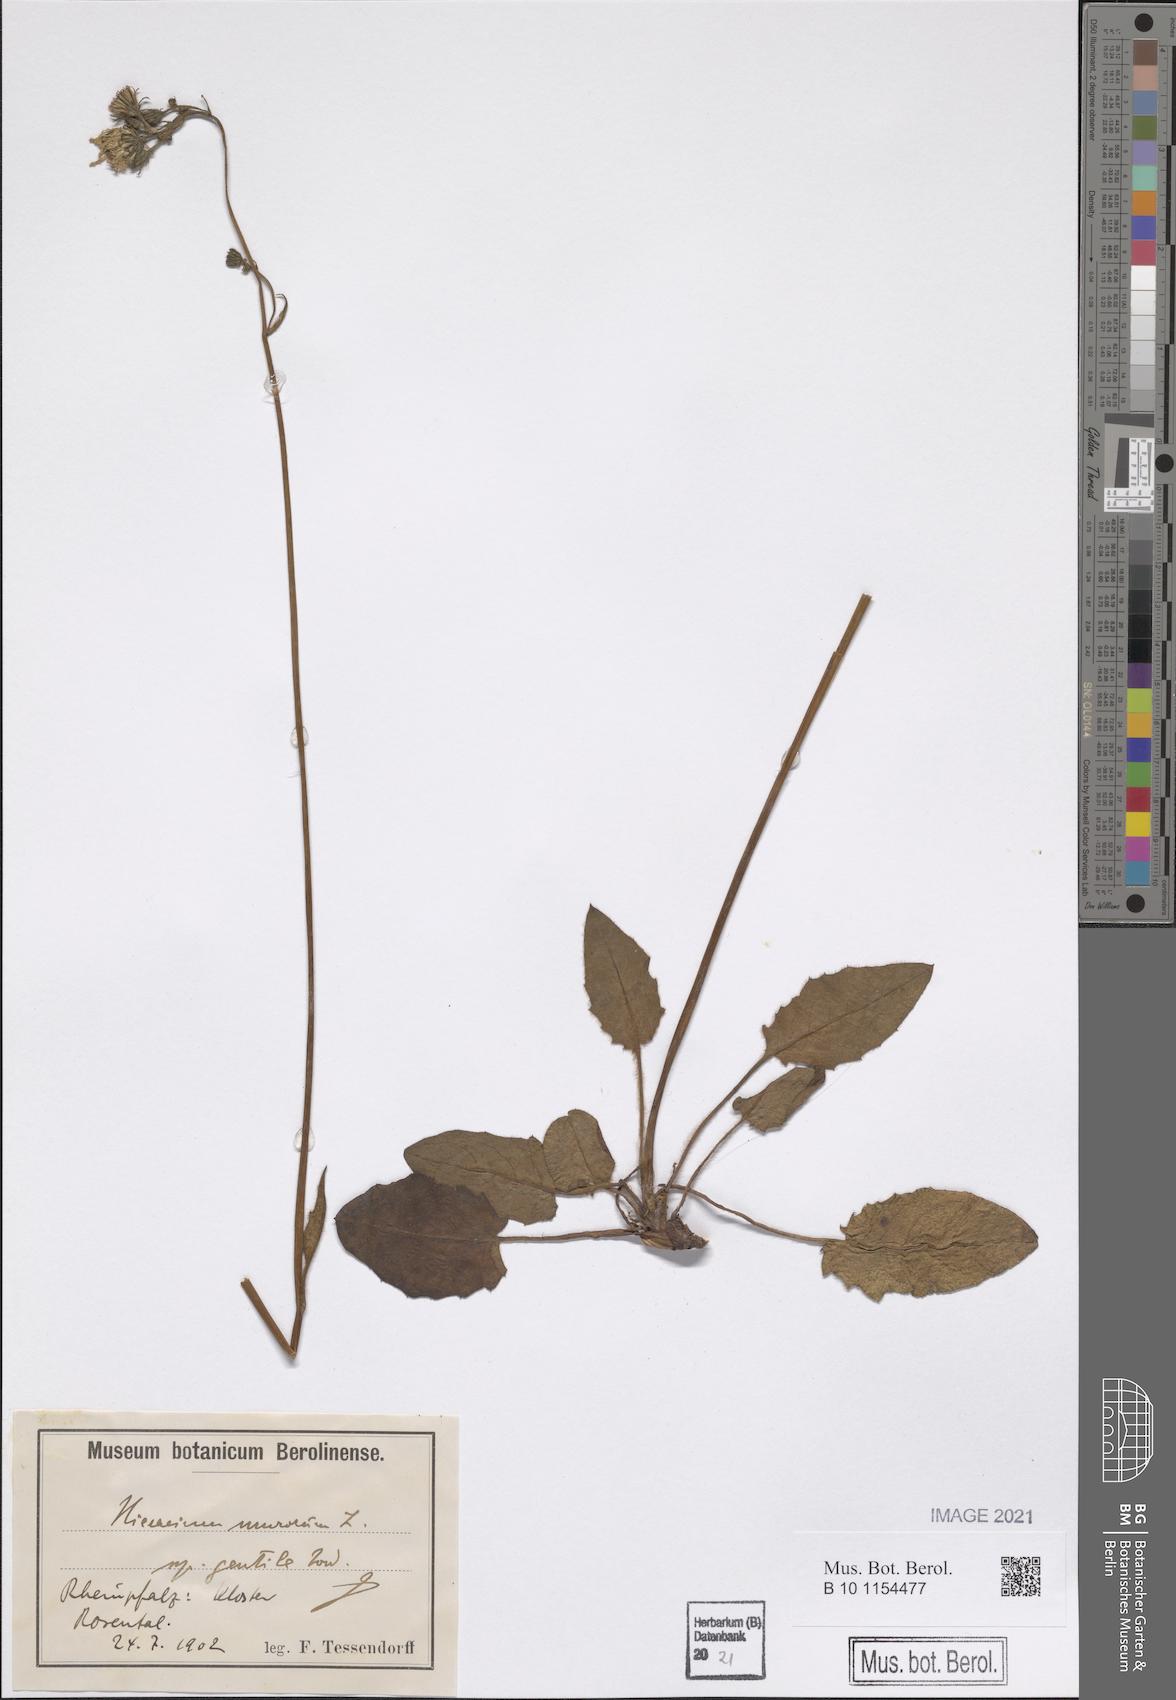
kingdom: Plantae
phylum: Tracheophyta
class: Magnoliopsida
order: Asterales
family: Asteraceae
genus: Hieracium
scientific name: Hieracium murorum
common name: Wall hawkweed
